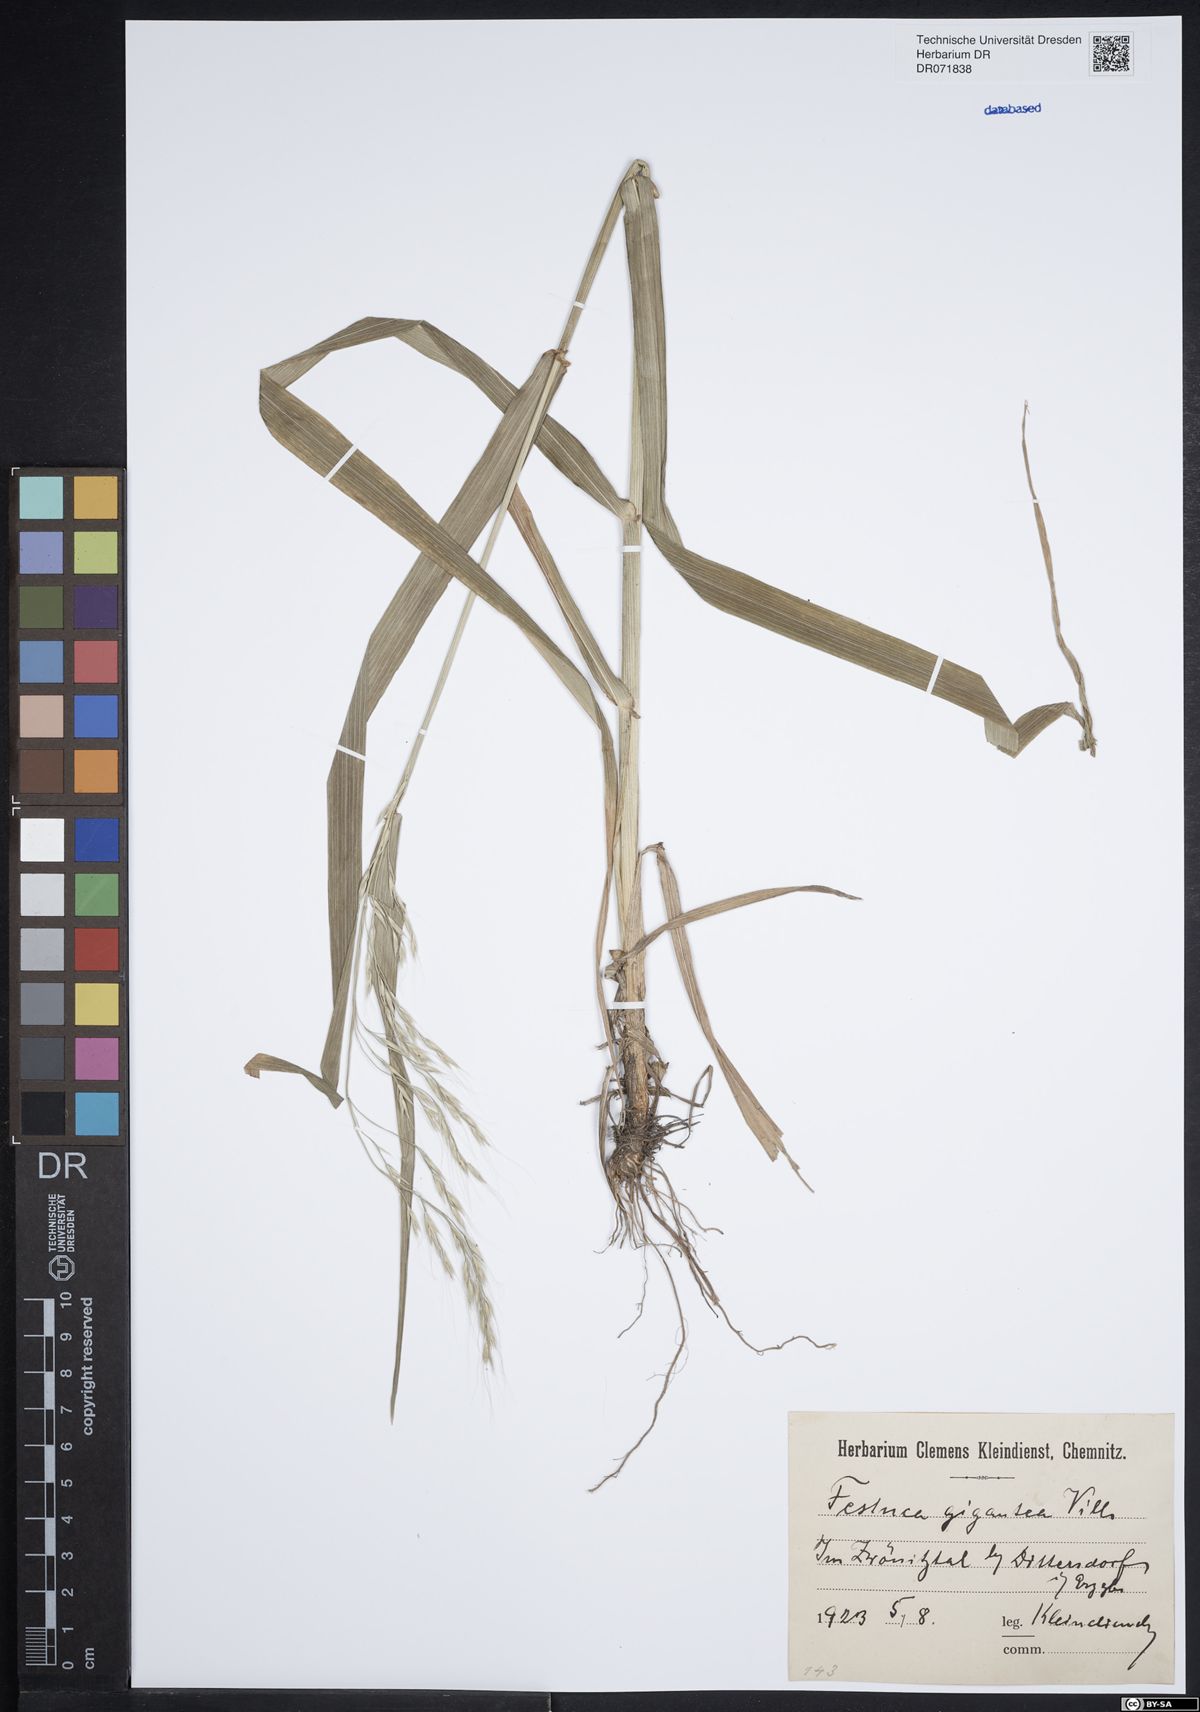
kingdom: Plantae
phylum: Tracheophyta
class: Liliopsida
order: Poales
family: Poaceae
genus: Lolium
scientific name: Lolium giganteum
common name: Giant fescue
